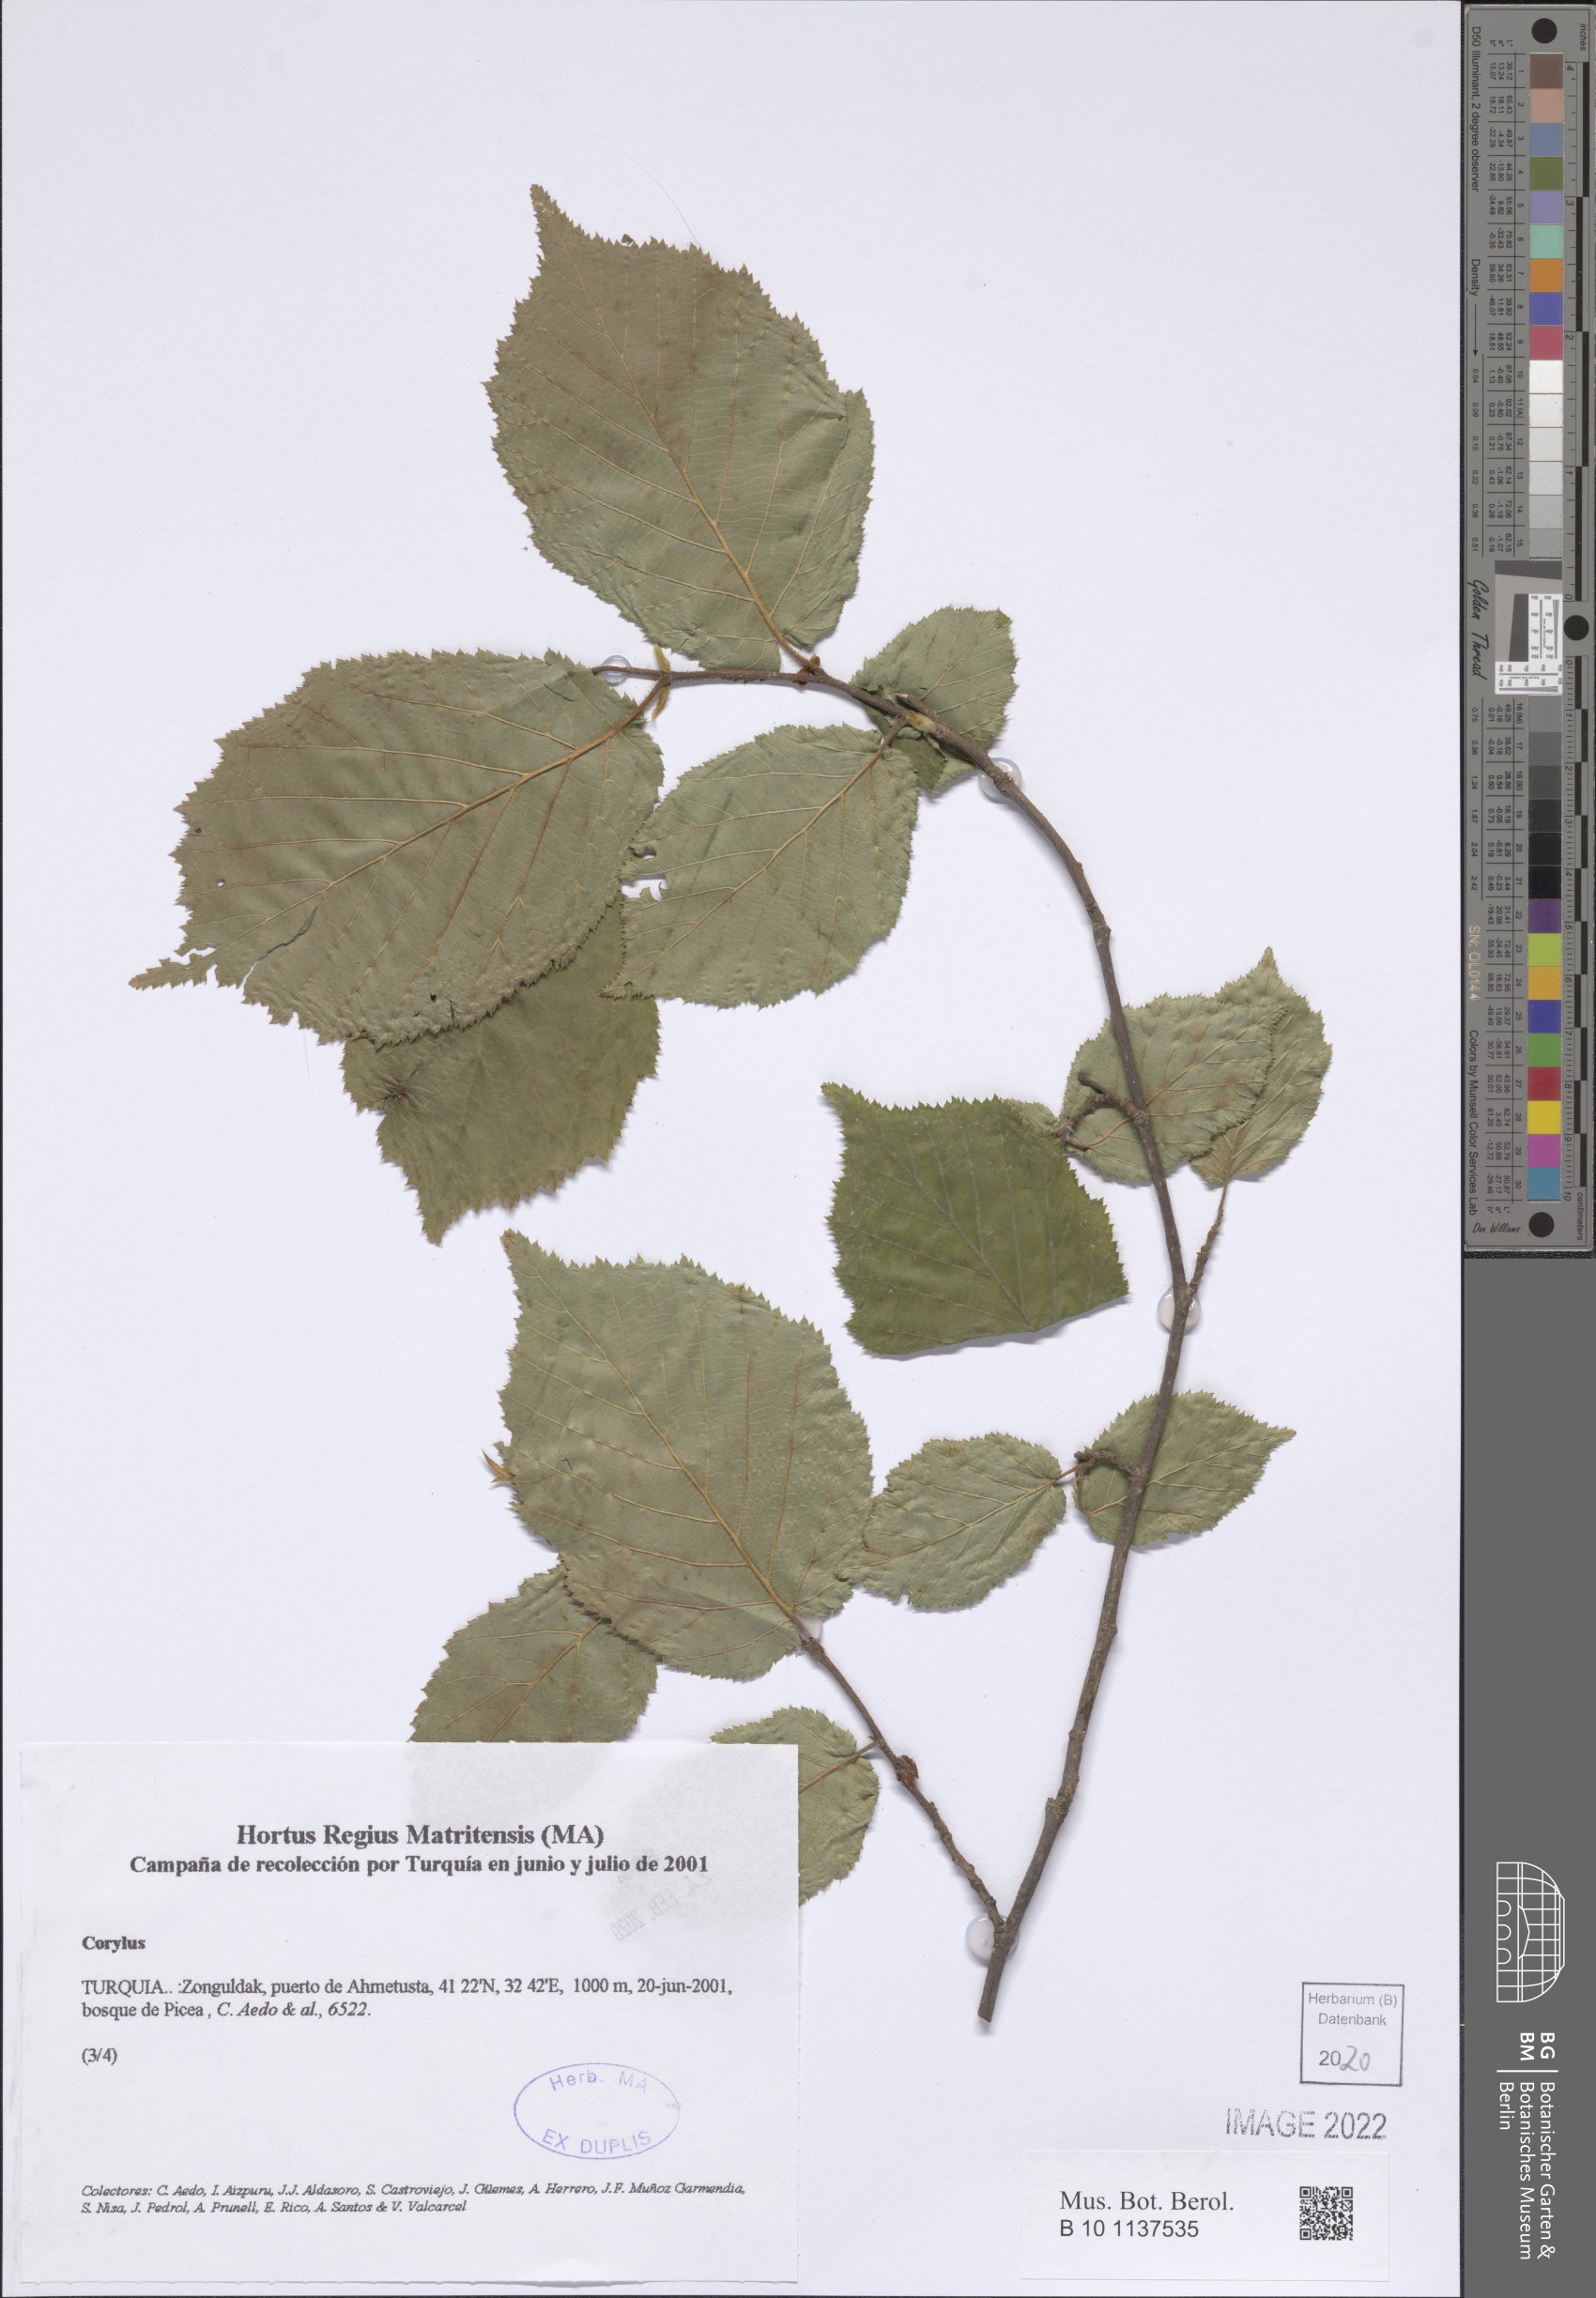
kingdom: Plantae
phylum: Tracheophyta
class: Magnoliopsida
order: Fagales
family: Betulaceae
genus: Corylus
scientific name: Corylus
